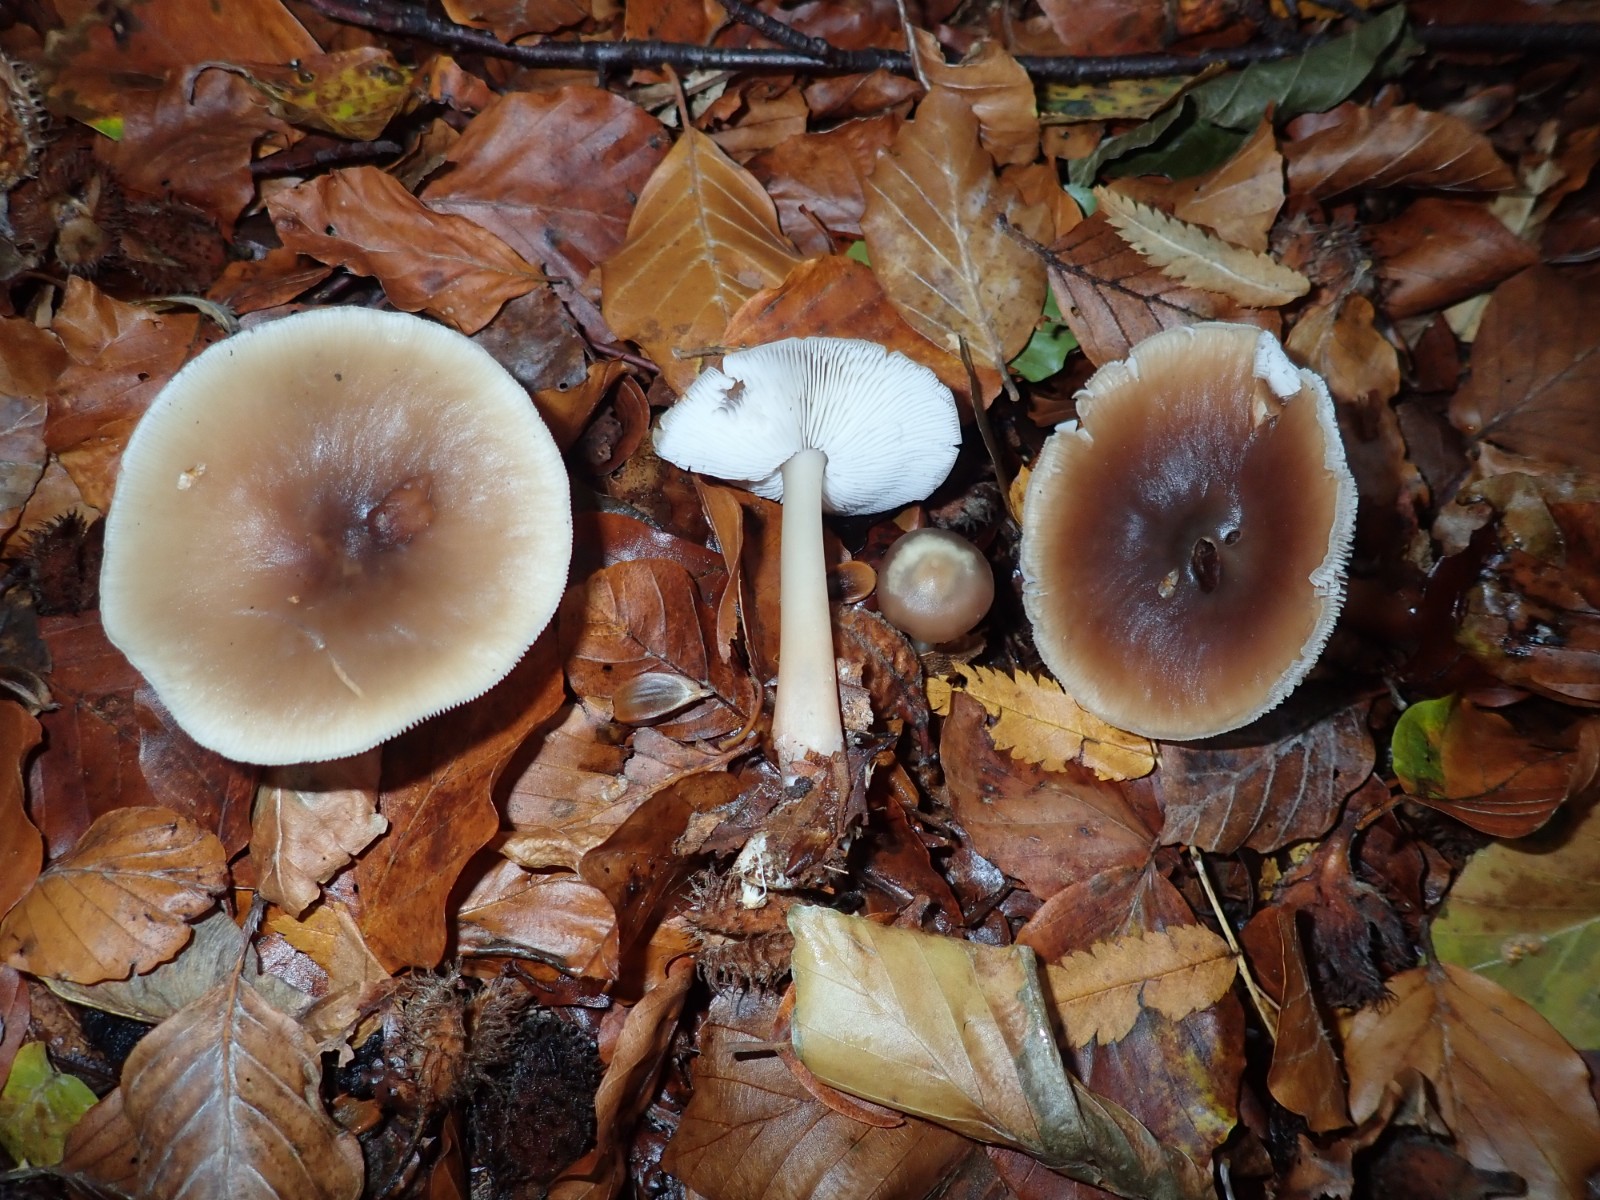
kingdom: Fungi
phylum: Basidiomycota
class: Agaricomycetes
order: Agaricales
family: Omphalotaceae
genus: Rhodocollybia
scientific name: Rhodocollybia asema
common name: horngrå fladhat
